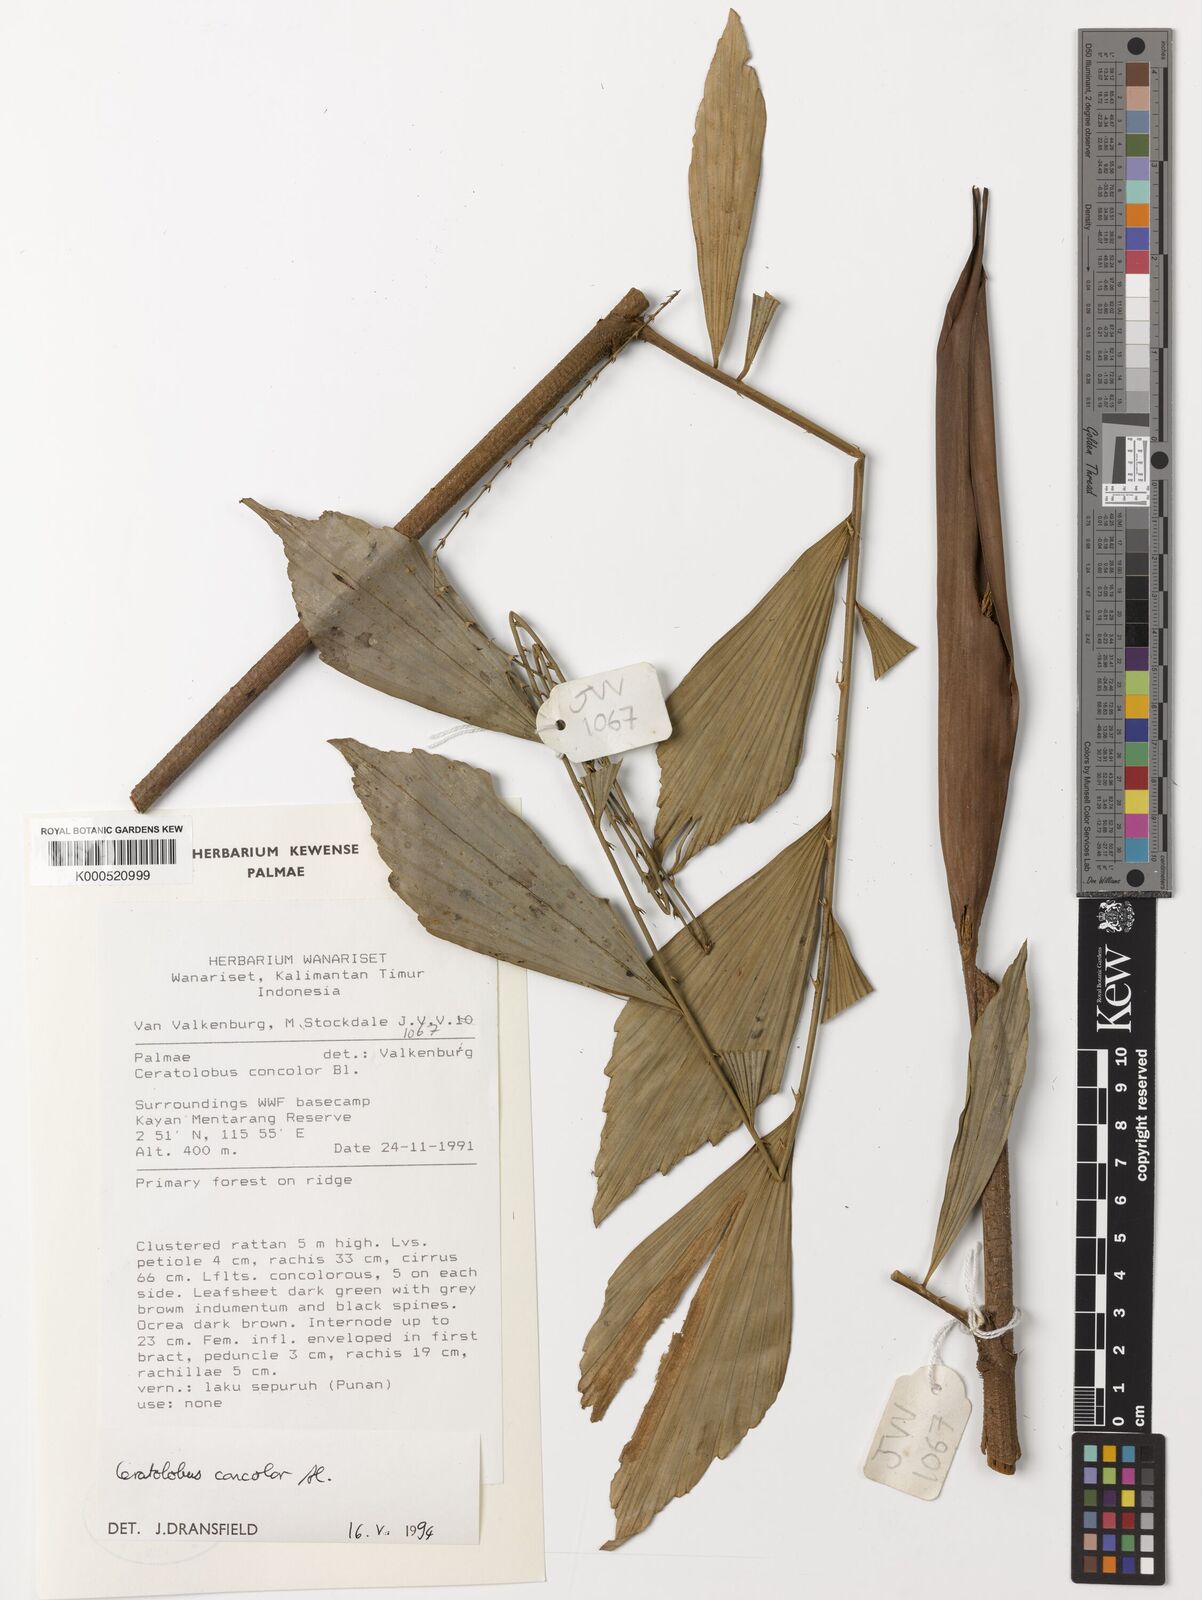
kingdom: Plantae
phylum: Tracheophyta
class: Liliopsida
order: Arecales
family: Arecaceae
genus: Calamus
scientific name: Calamus concolor
